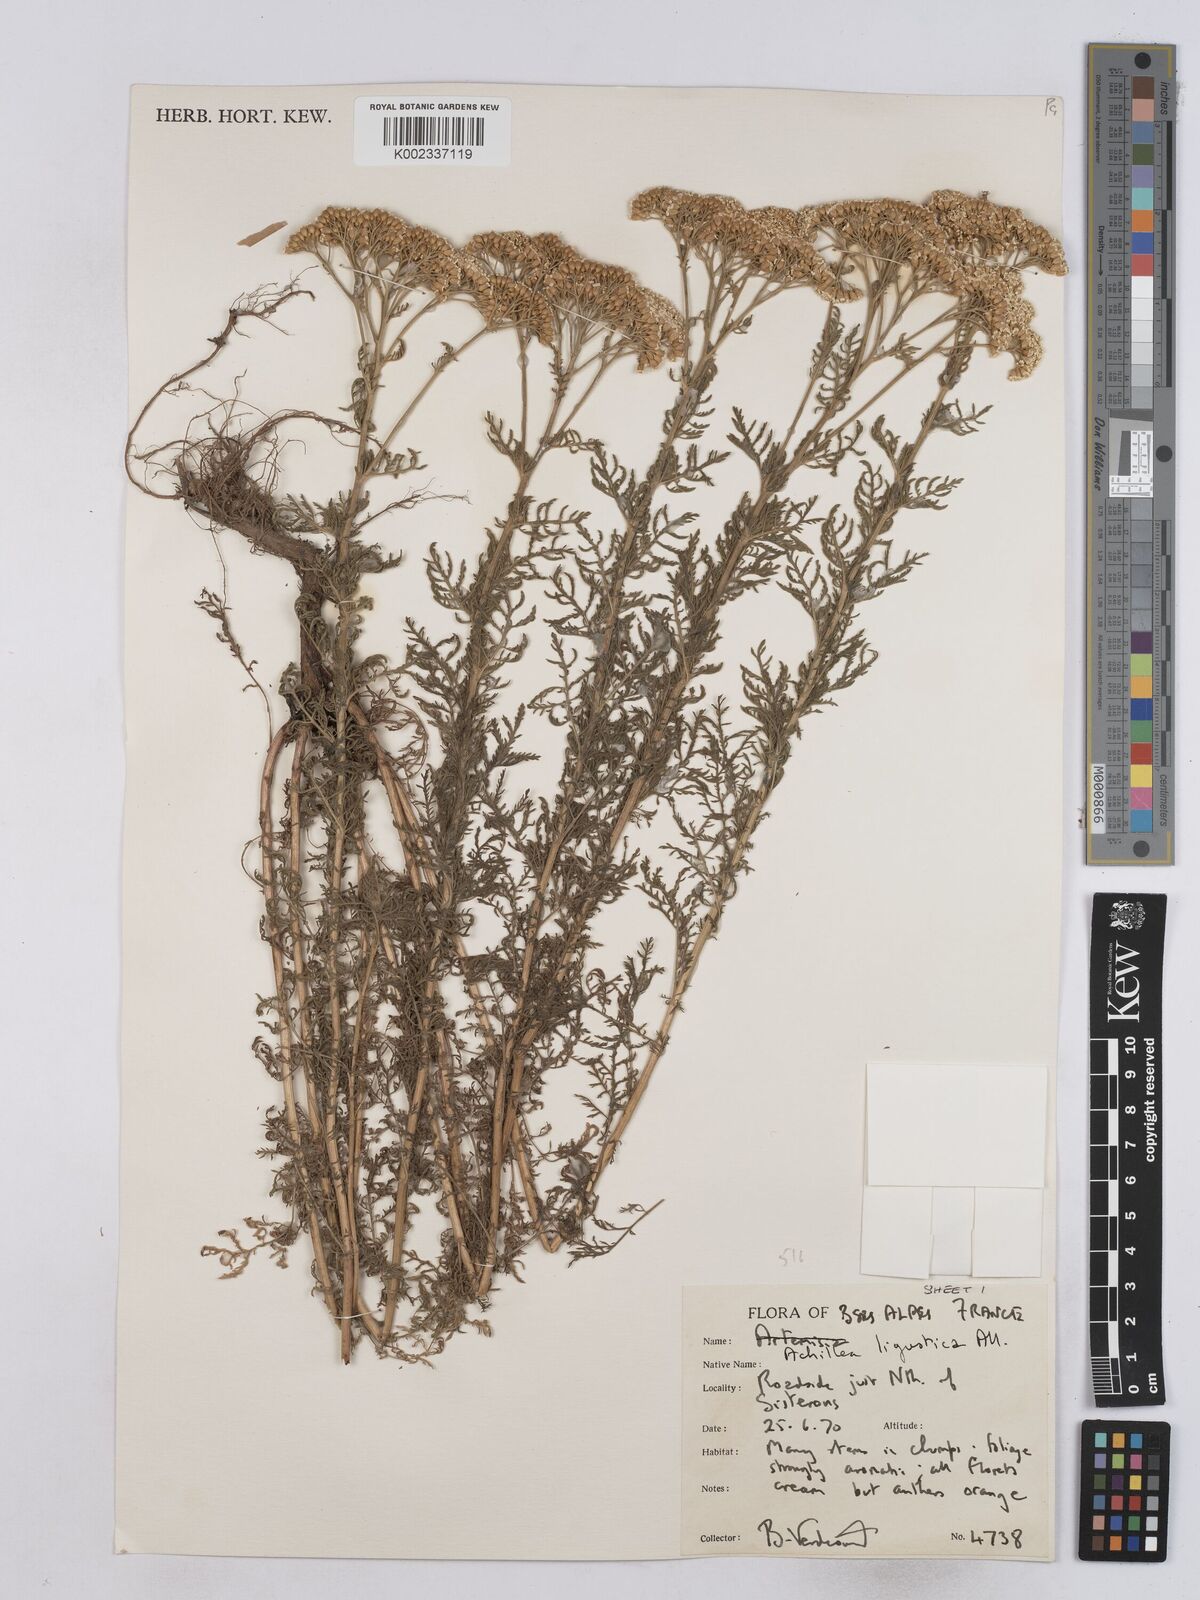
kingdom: Plantae
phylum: Tracheophyta
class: Magnoliopsida
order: Asterales
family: Asteraceae
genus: Achillea
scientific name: Achillea ligustica
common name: Southern yarrow
